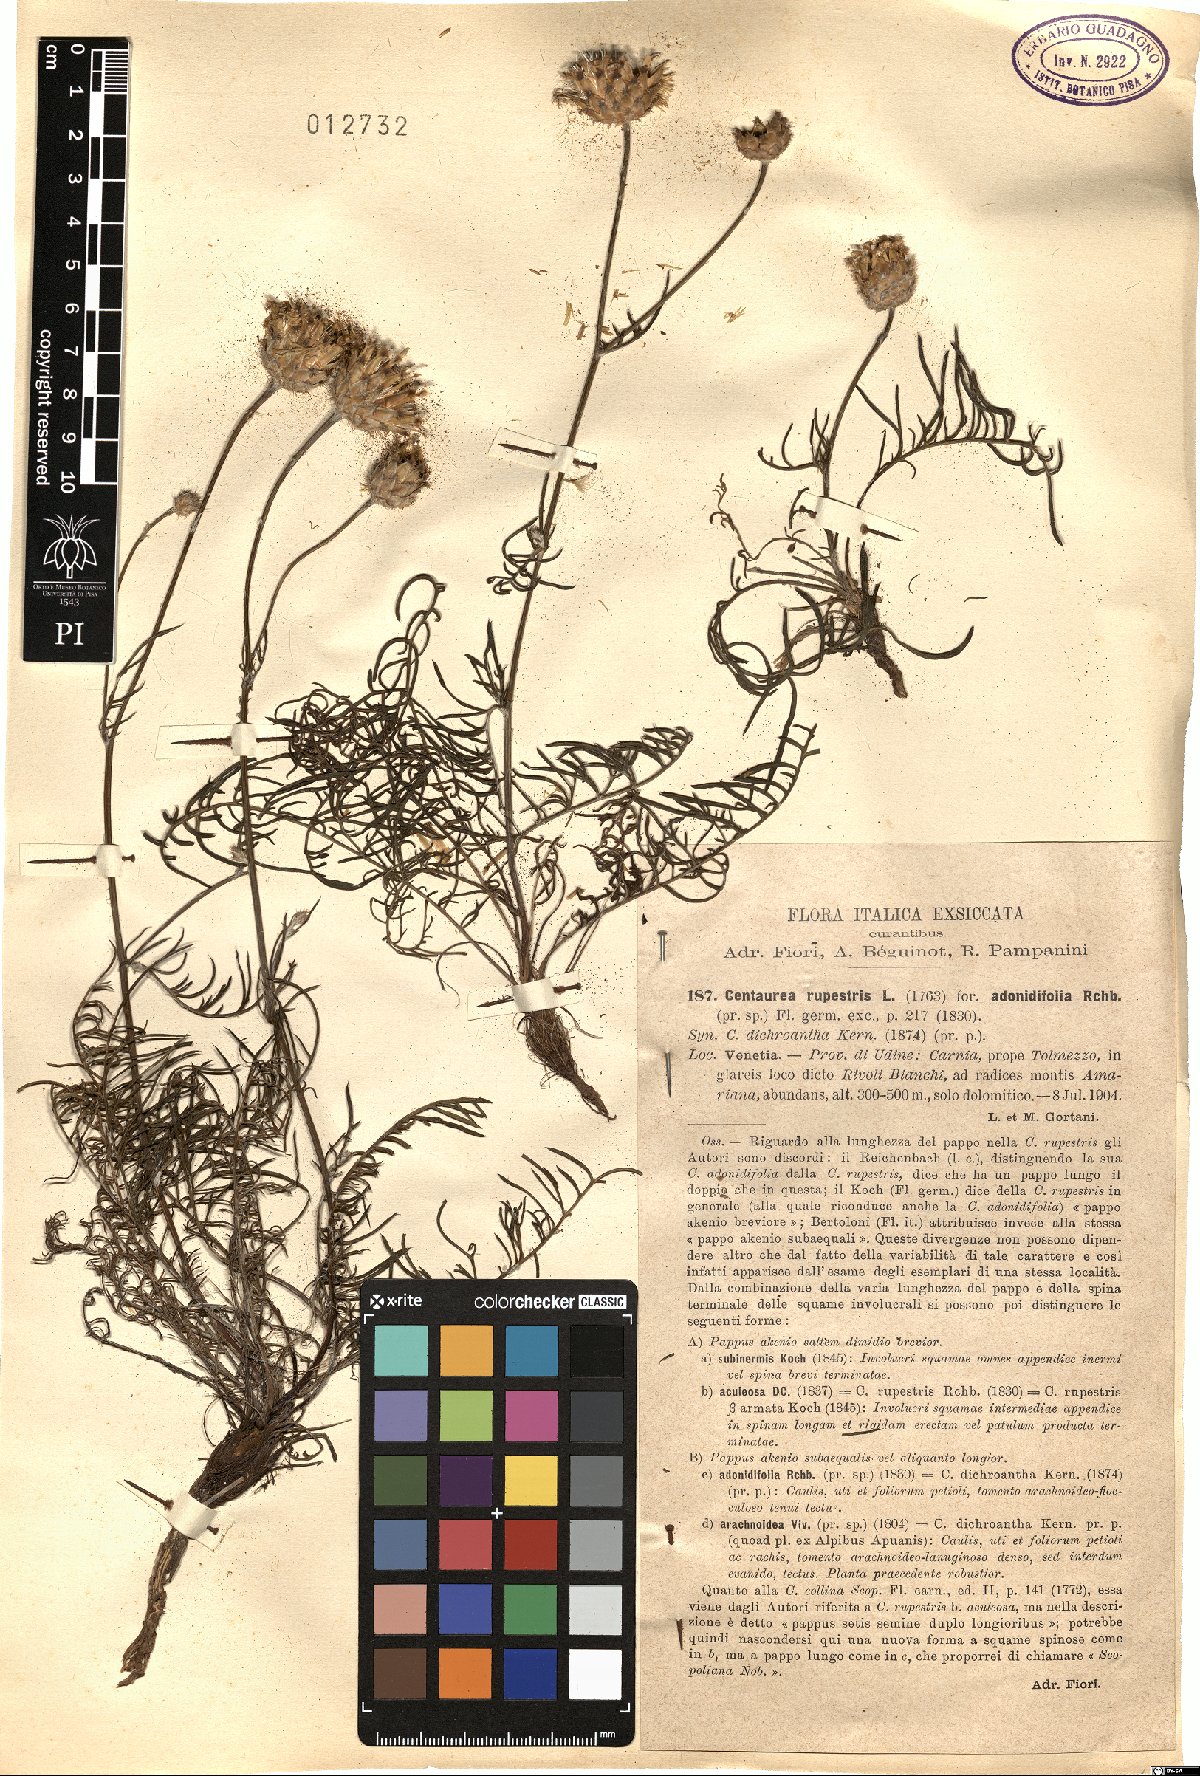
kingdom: Plantae
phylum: Tracheophyta
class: Magnoliopsida
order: Asterales
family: Asteraceae
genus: Centaurea
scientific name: Centaurea rupestris
